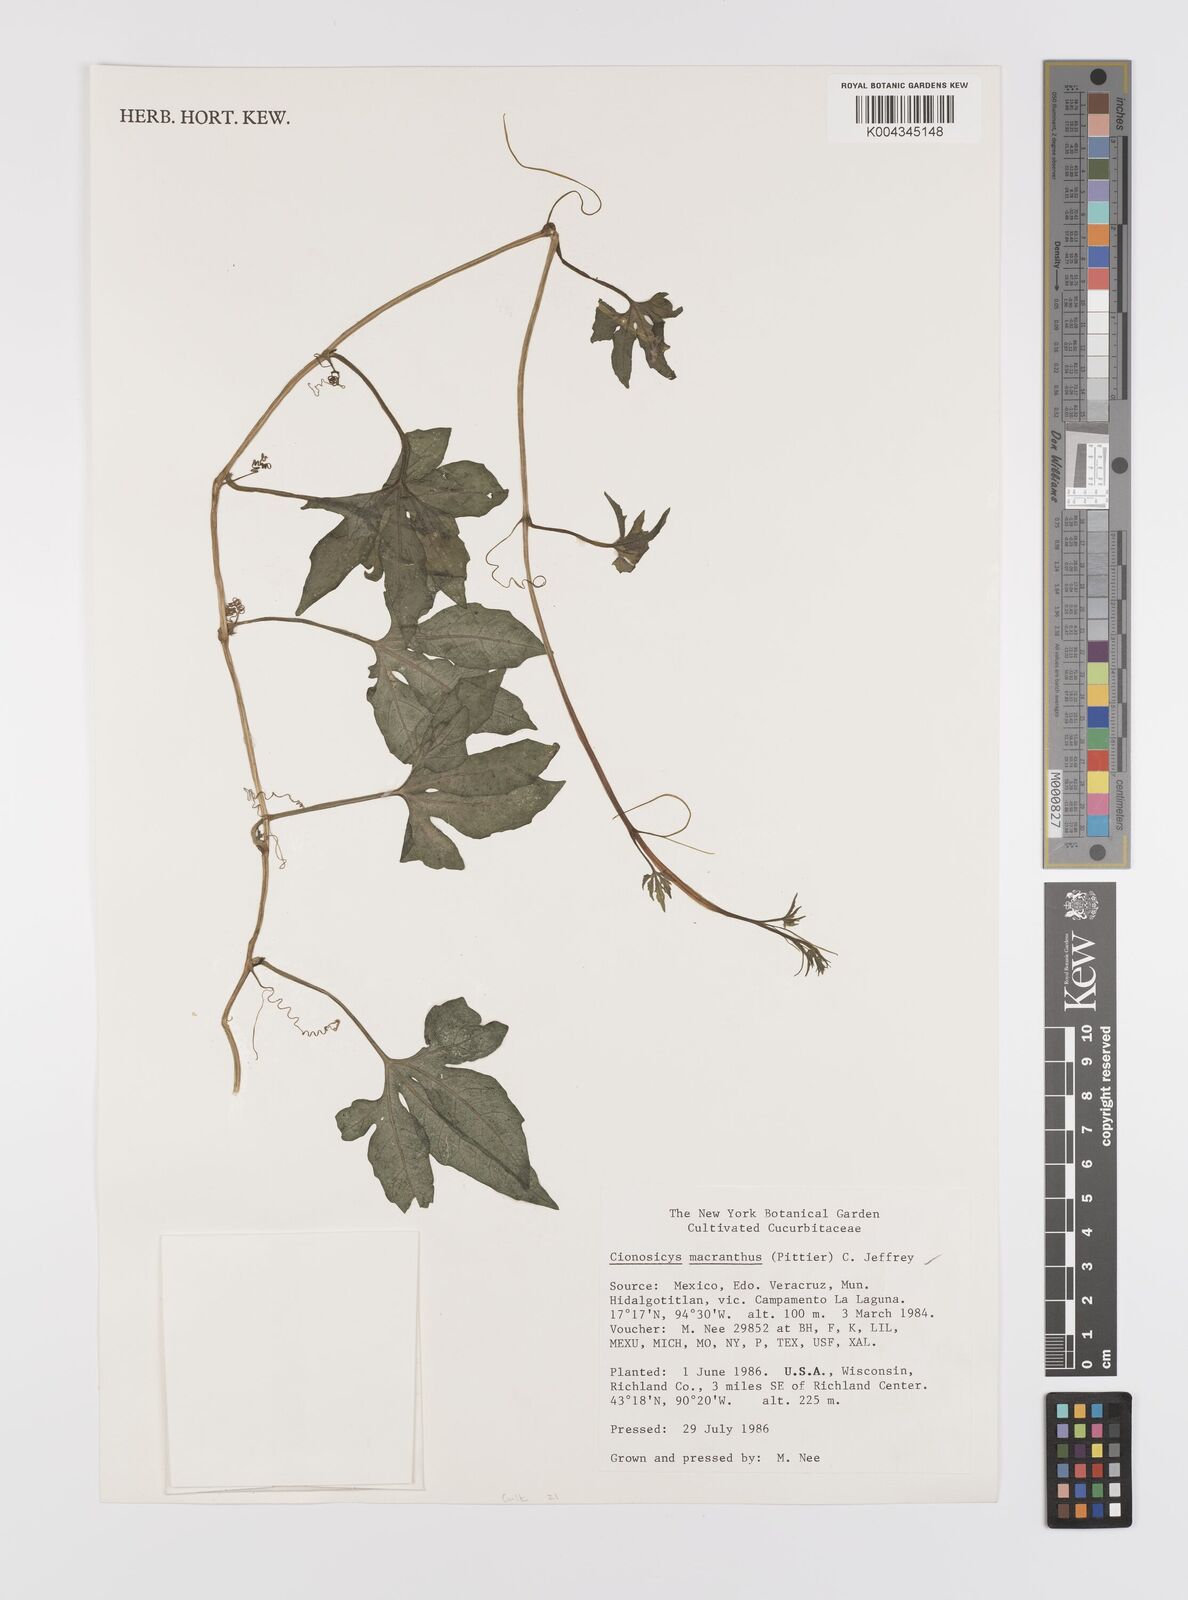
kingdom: Plantae
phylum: Tracheophyta
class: Magnoliopsida
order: Cucurbitales
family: Cucurbitaceae
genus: Cionosicys
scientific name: Cionosicys
